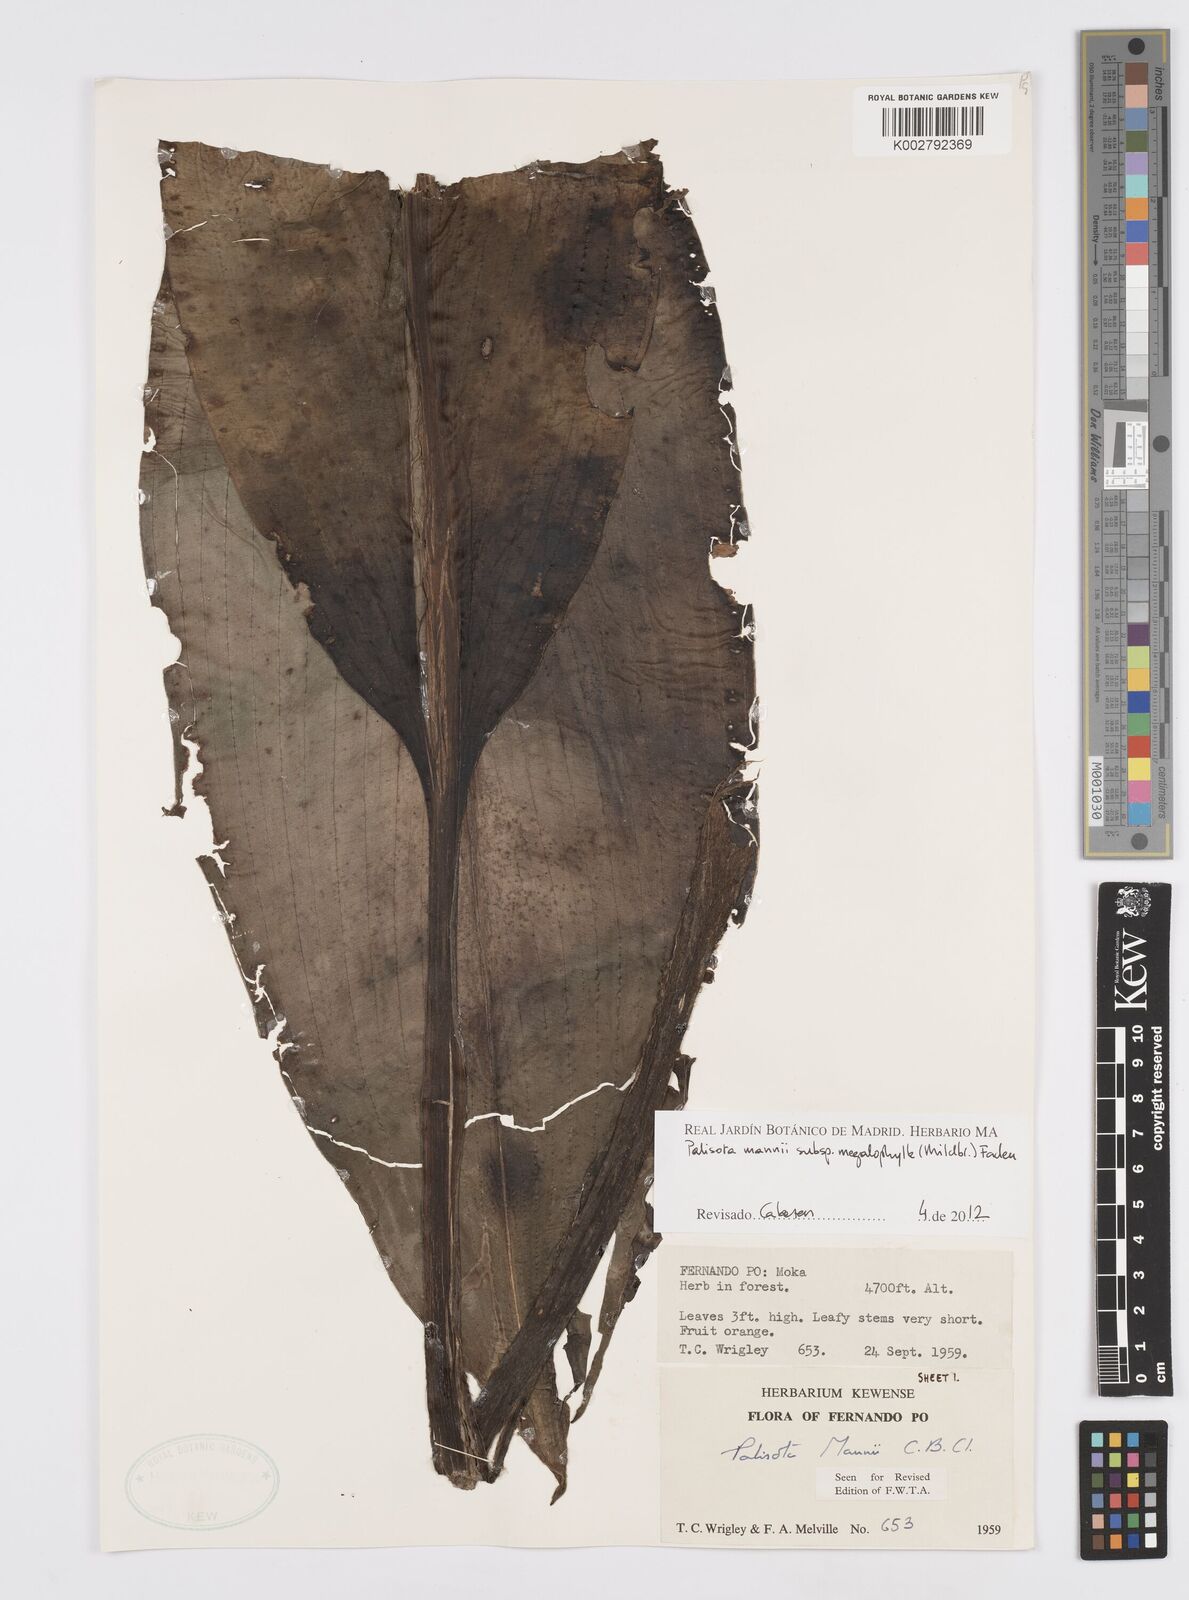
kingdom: Plantae
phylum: Tracheophyta
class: Liliopsida
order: Commelinales
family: Commelinaceae
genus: Palisota
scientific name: Palisota mannii
